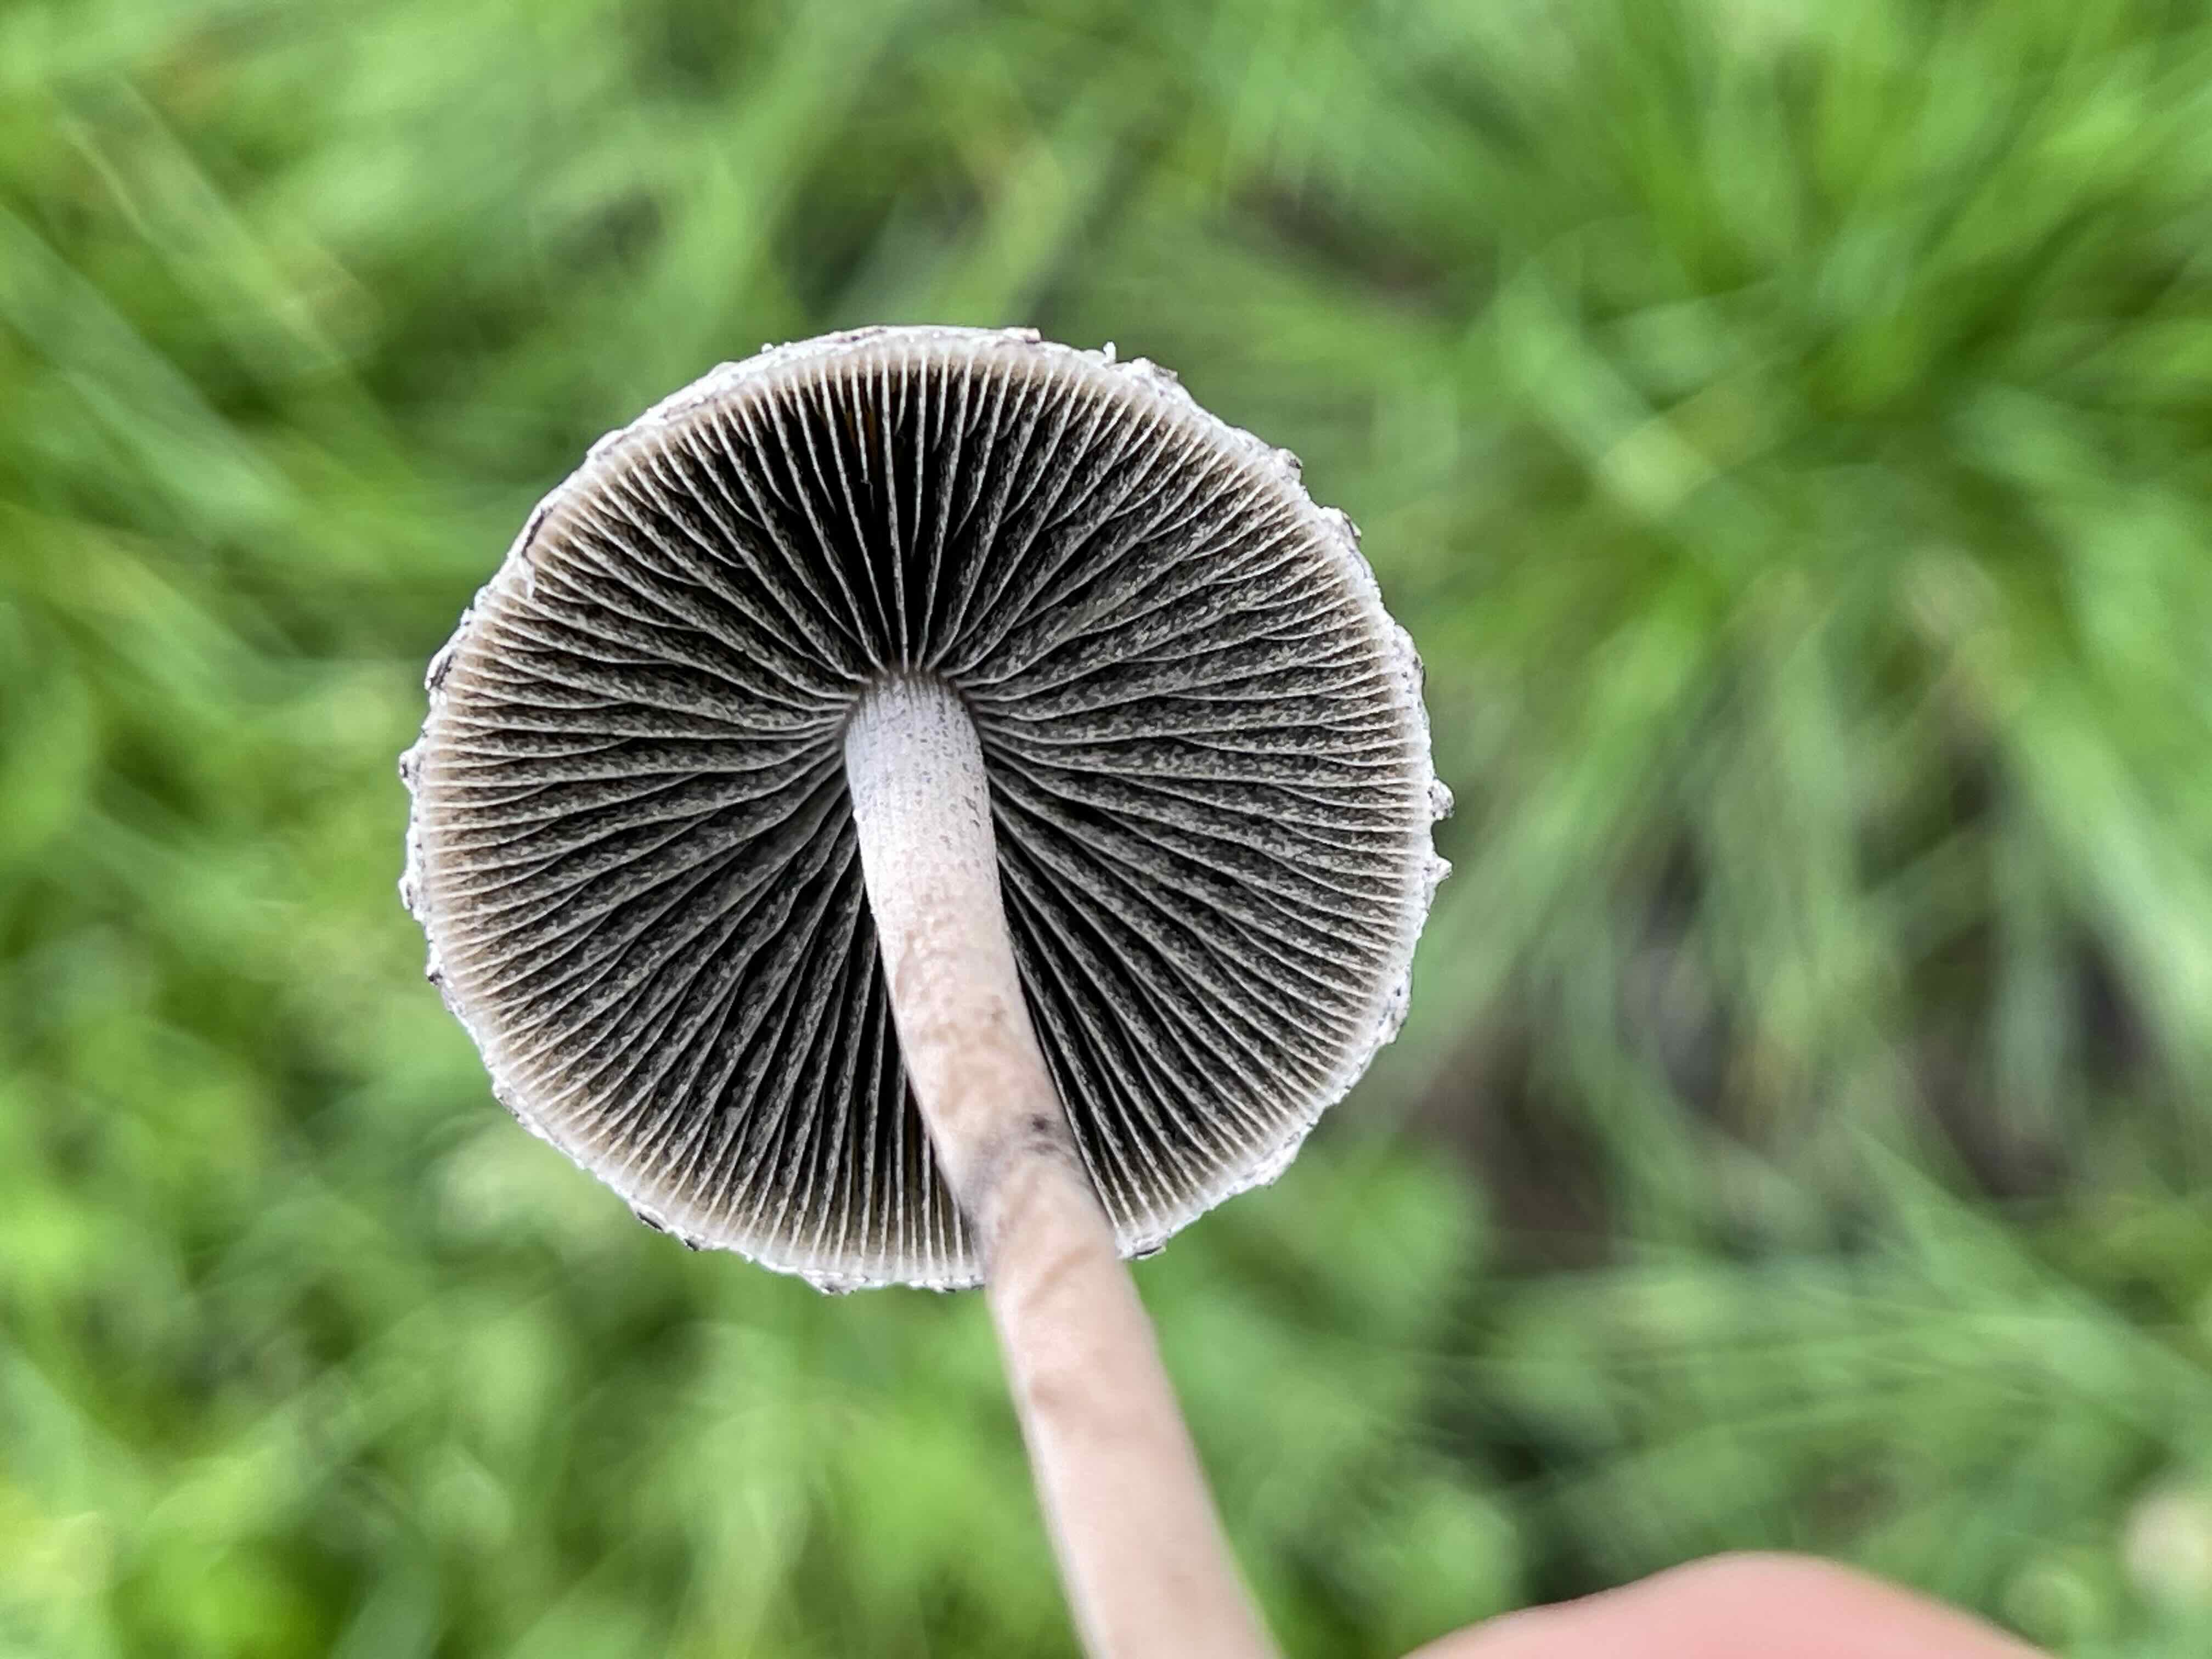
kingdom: Fungi
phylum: Basidiomycota
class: Agaricomycetes
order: Agaricales
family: Bolbitiaceae
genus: Panaeolus
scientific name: Panaeolus papilionaceus
